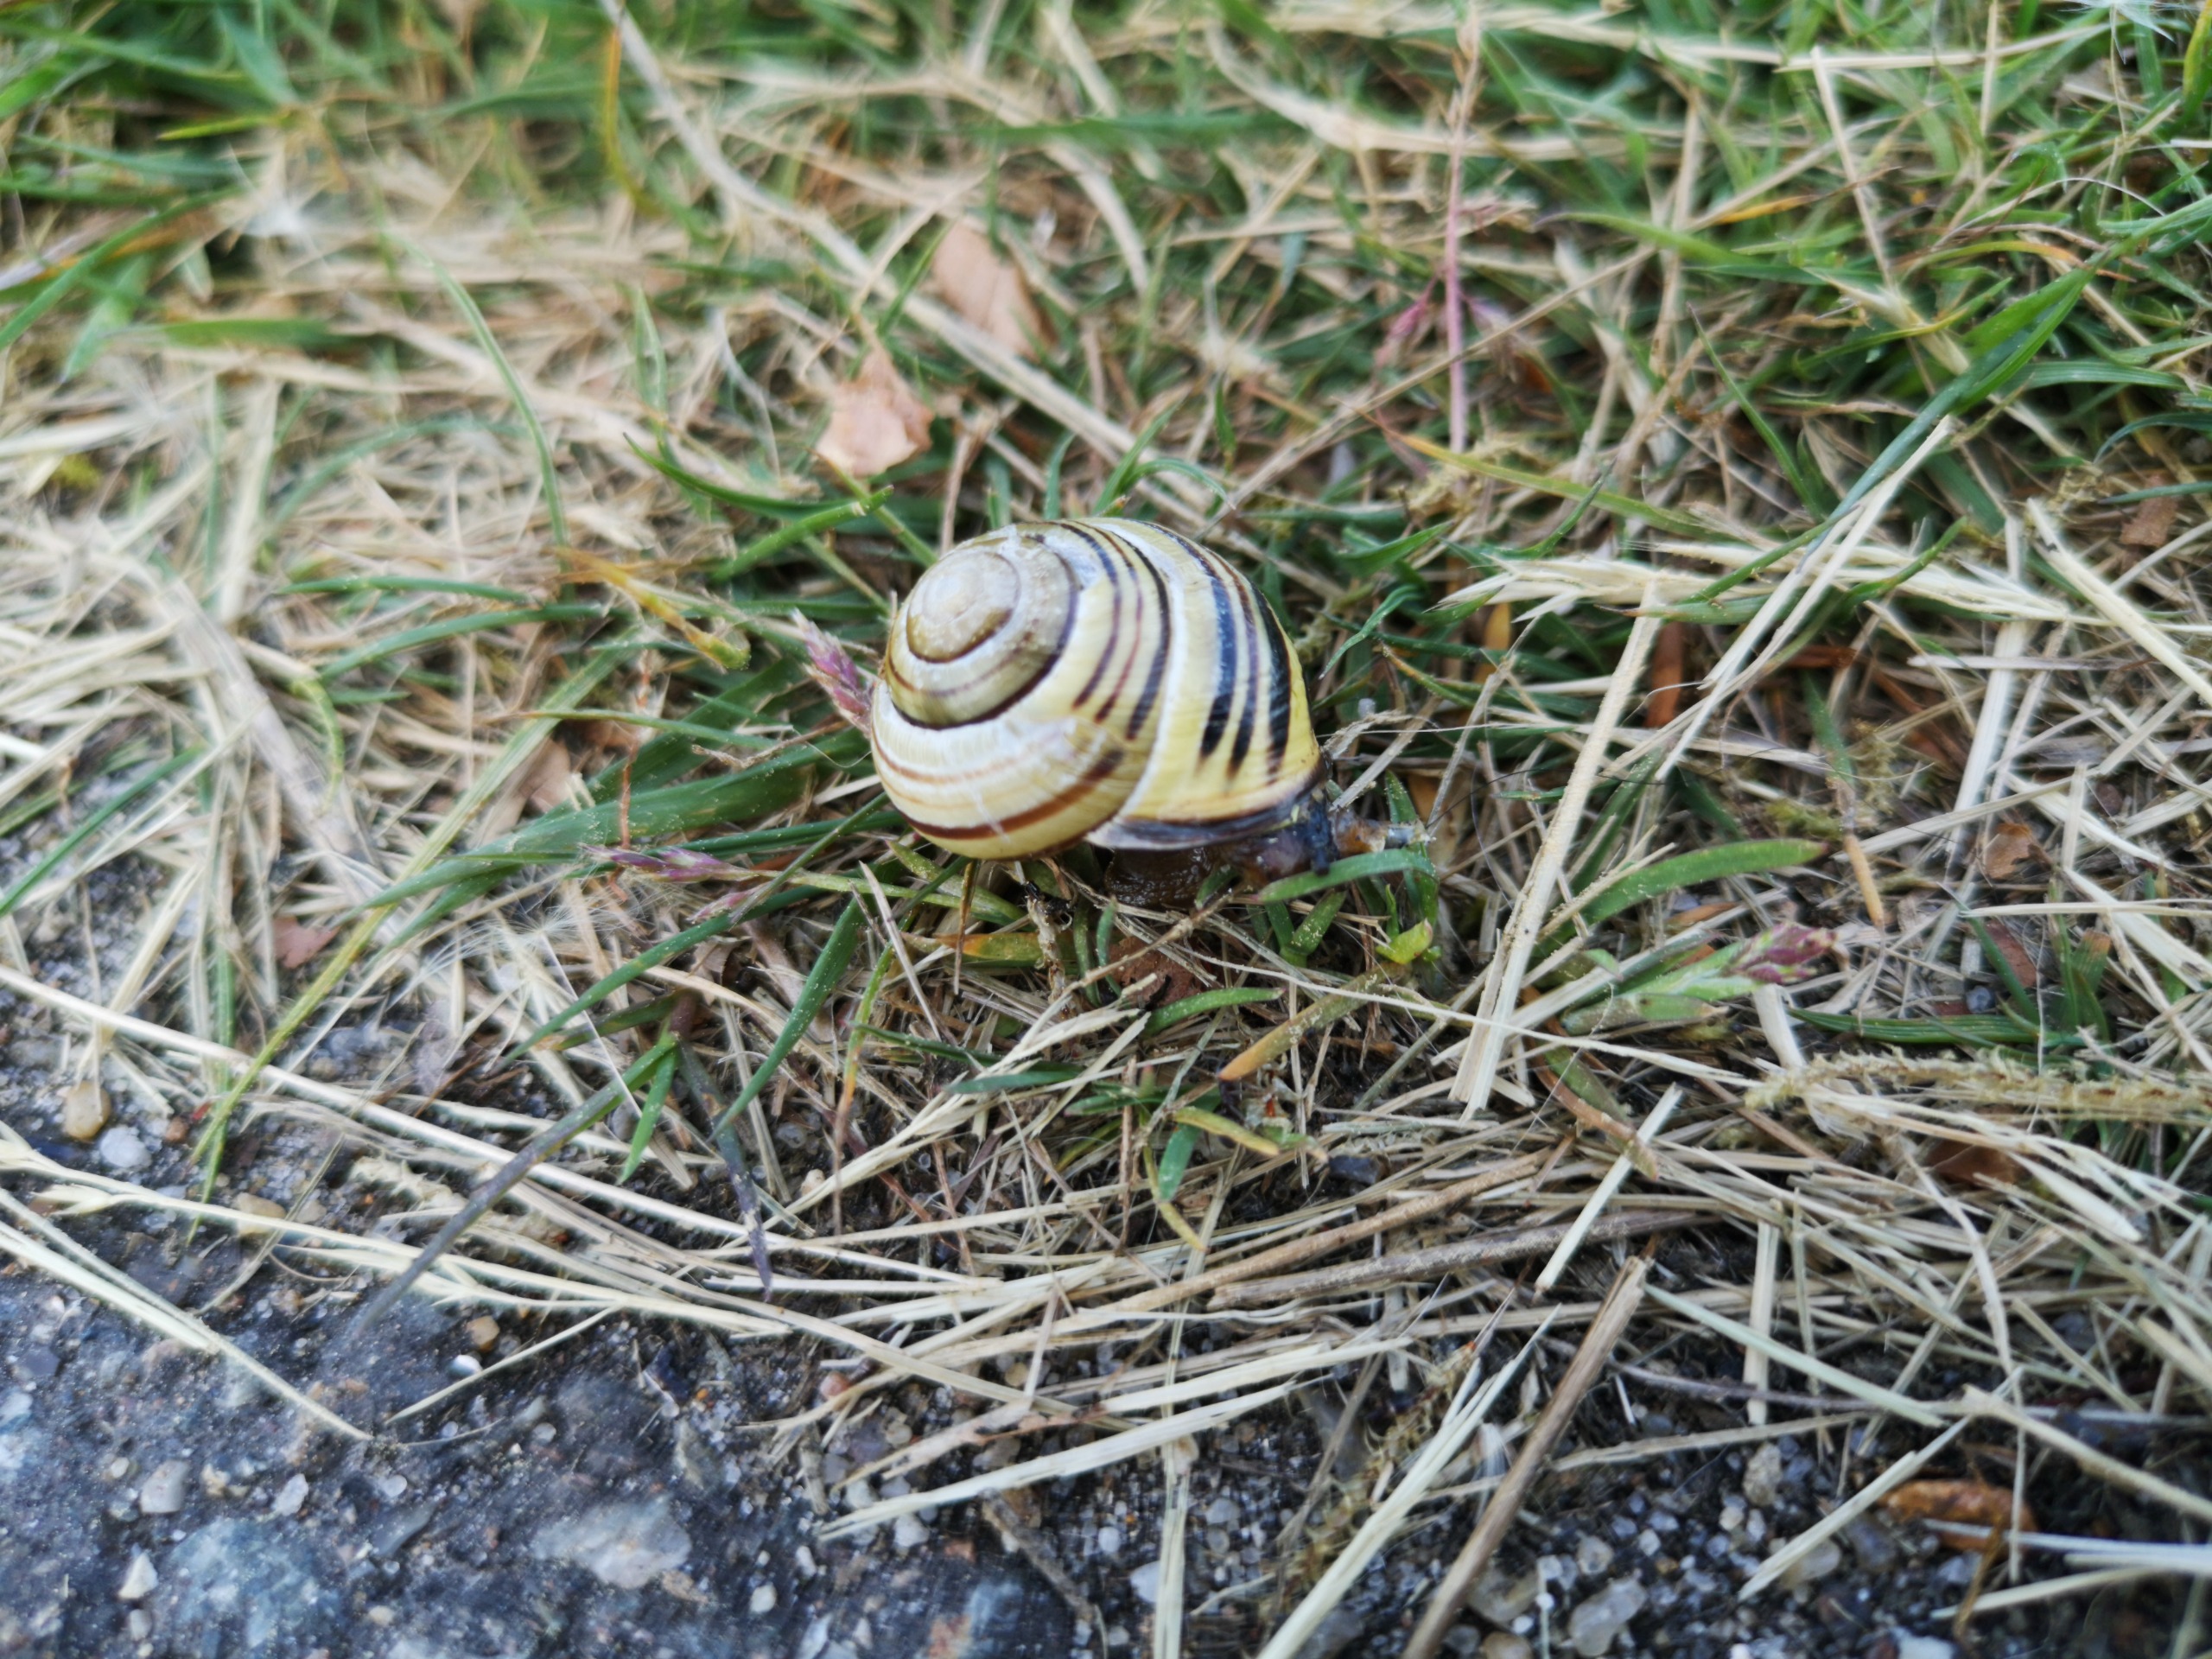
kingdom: Animalia
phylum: Mollusca
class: Gastropoda
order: Stylommatophora
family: Helicidae
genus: Cepaea
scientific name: Cepaea nemoralis
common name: Lundsnegl
